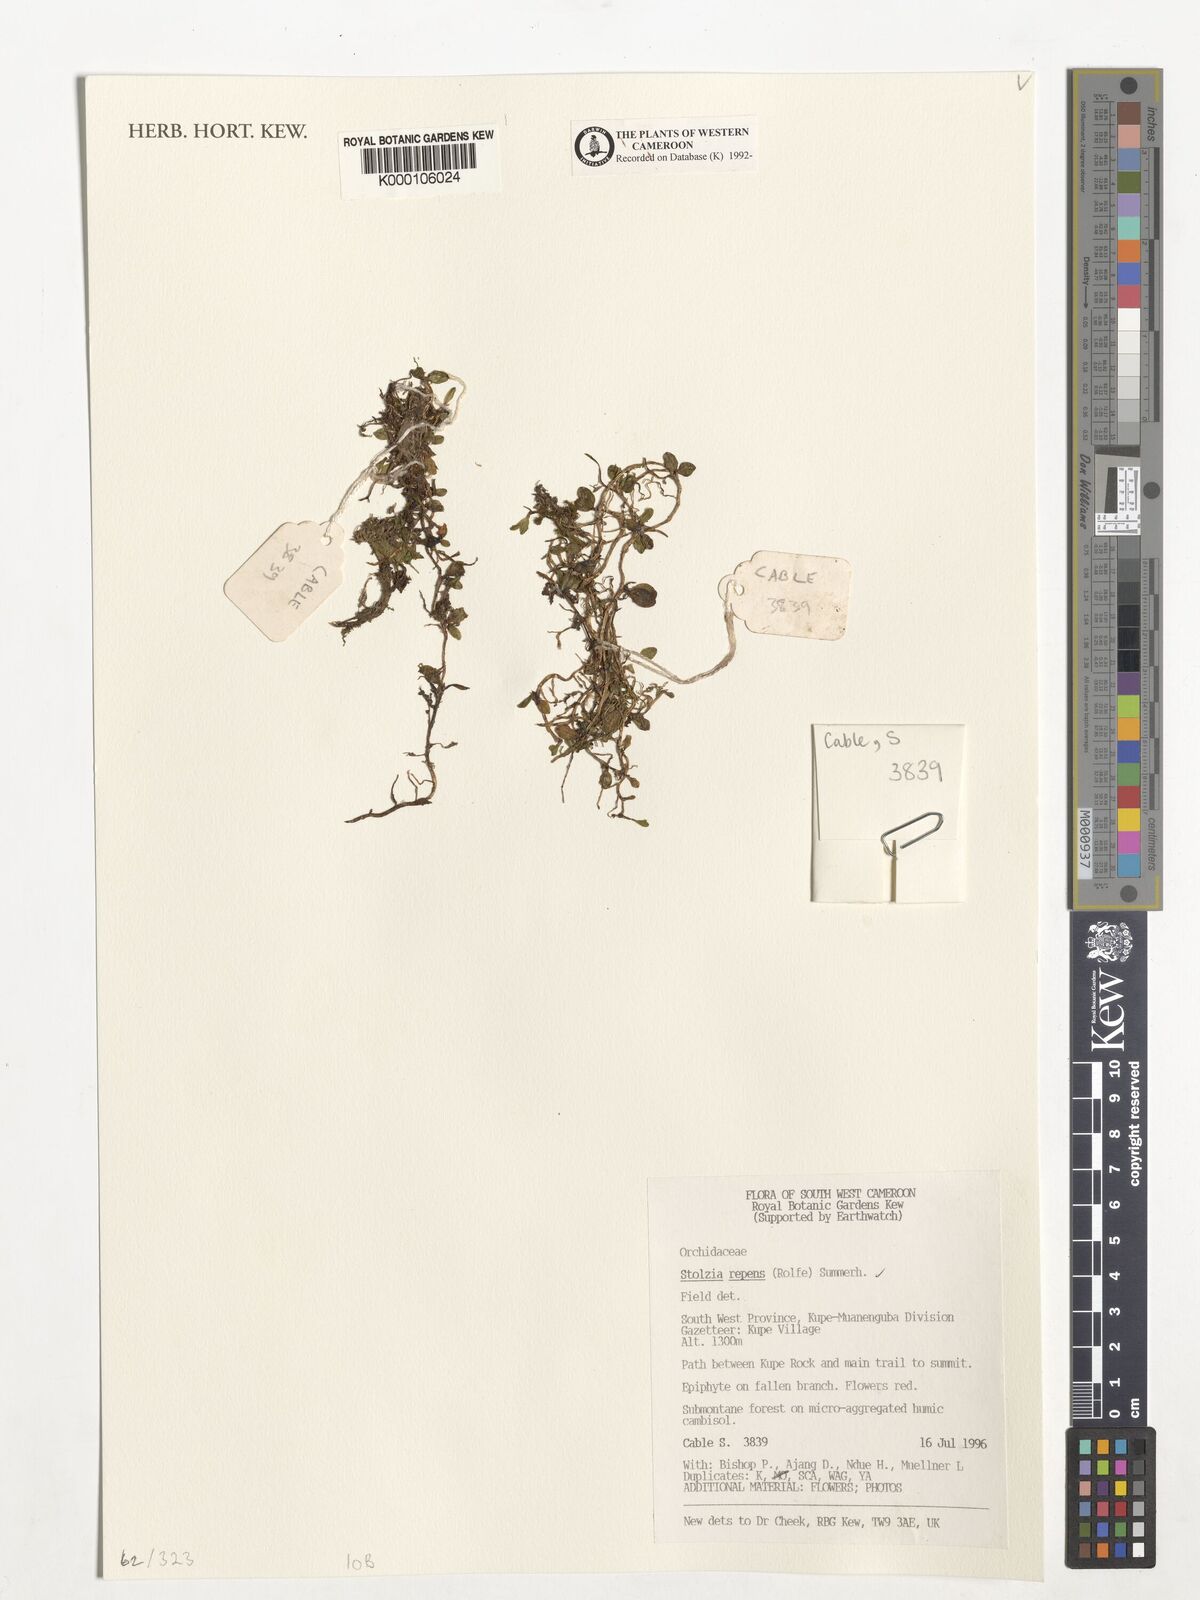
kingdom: Plantae
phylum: Tracheophyta
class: Liliopsida
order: Asparagales
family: Orchidaceae
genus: Porpax
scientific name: Porpax repens
